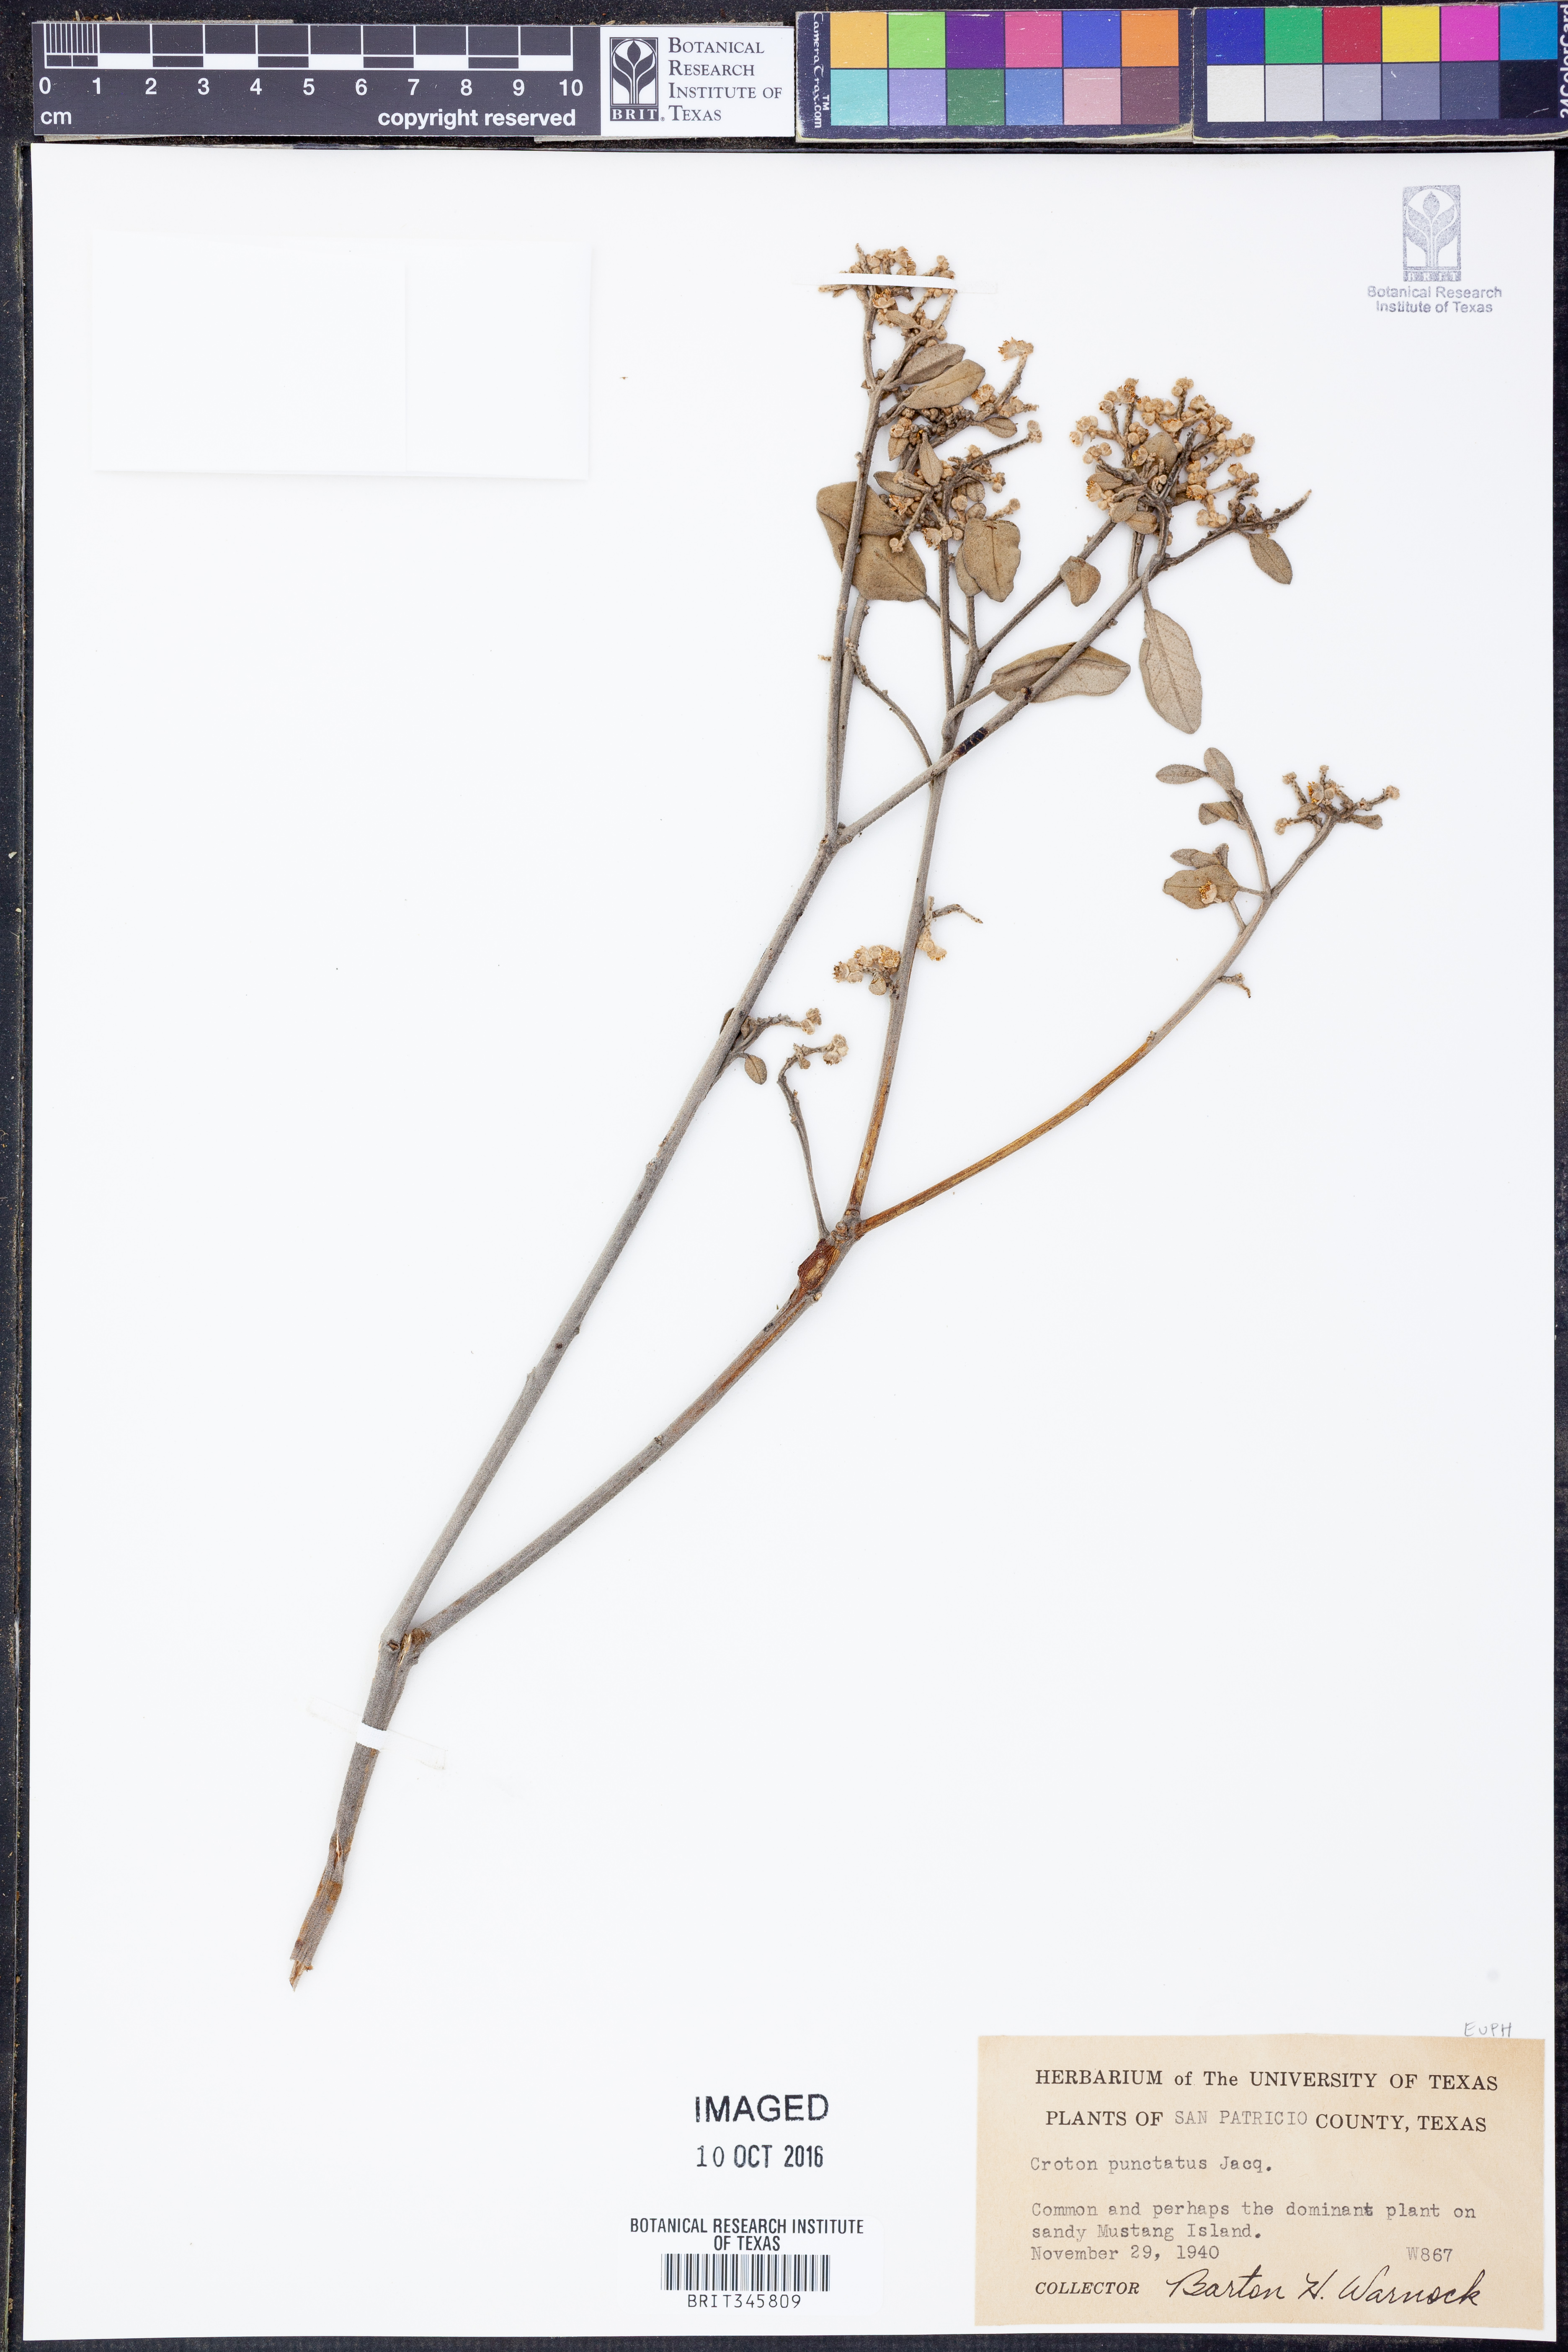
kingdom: Plantae
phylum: Tracheophyta
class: Magnoliopsida
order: Malpighiales
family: Euphorbiaceae
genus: Croton
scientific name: Croton punctatus
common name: Beach-tea
